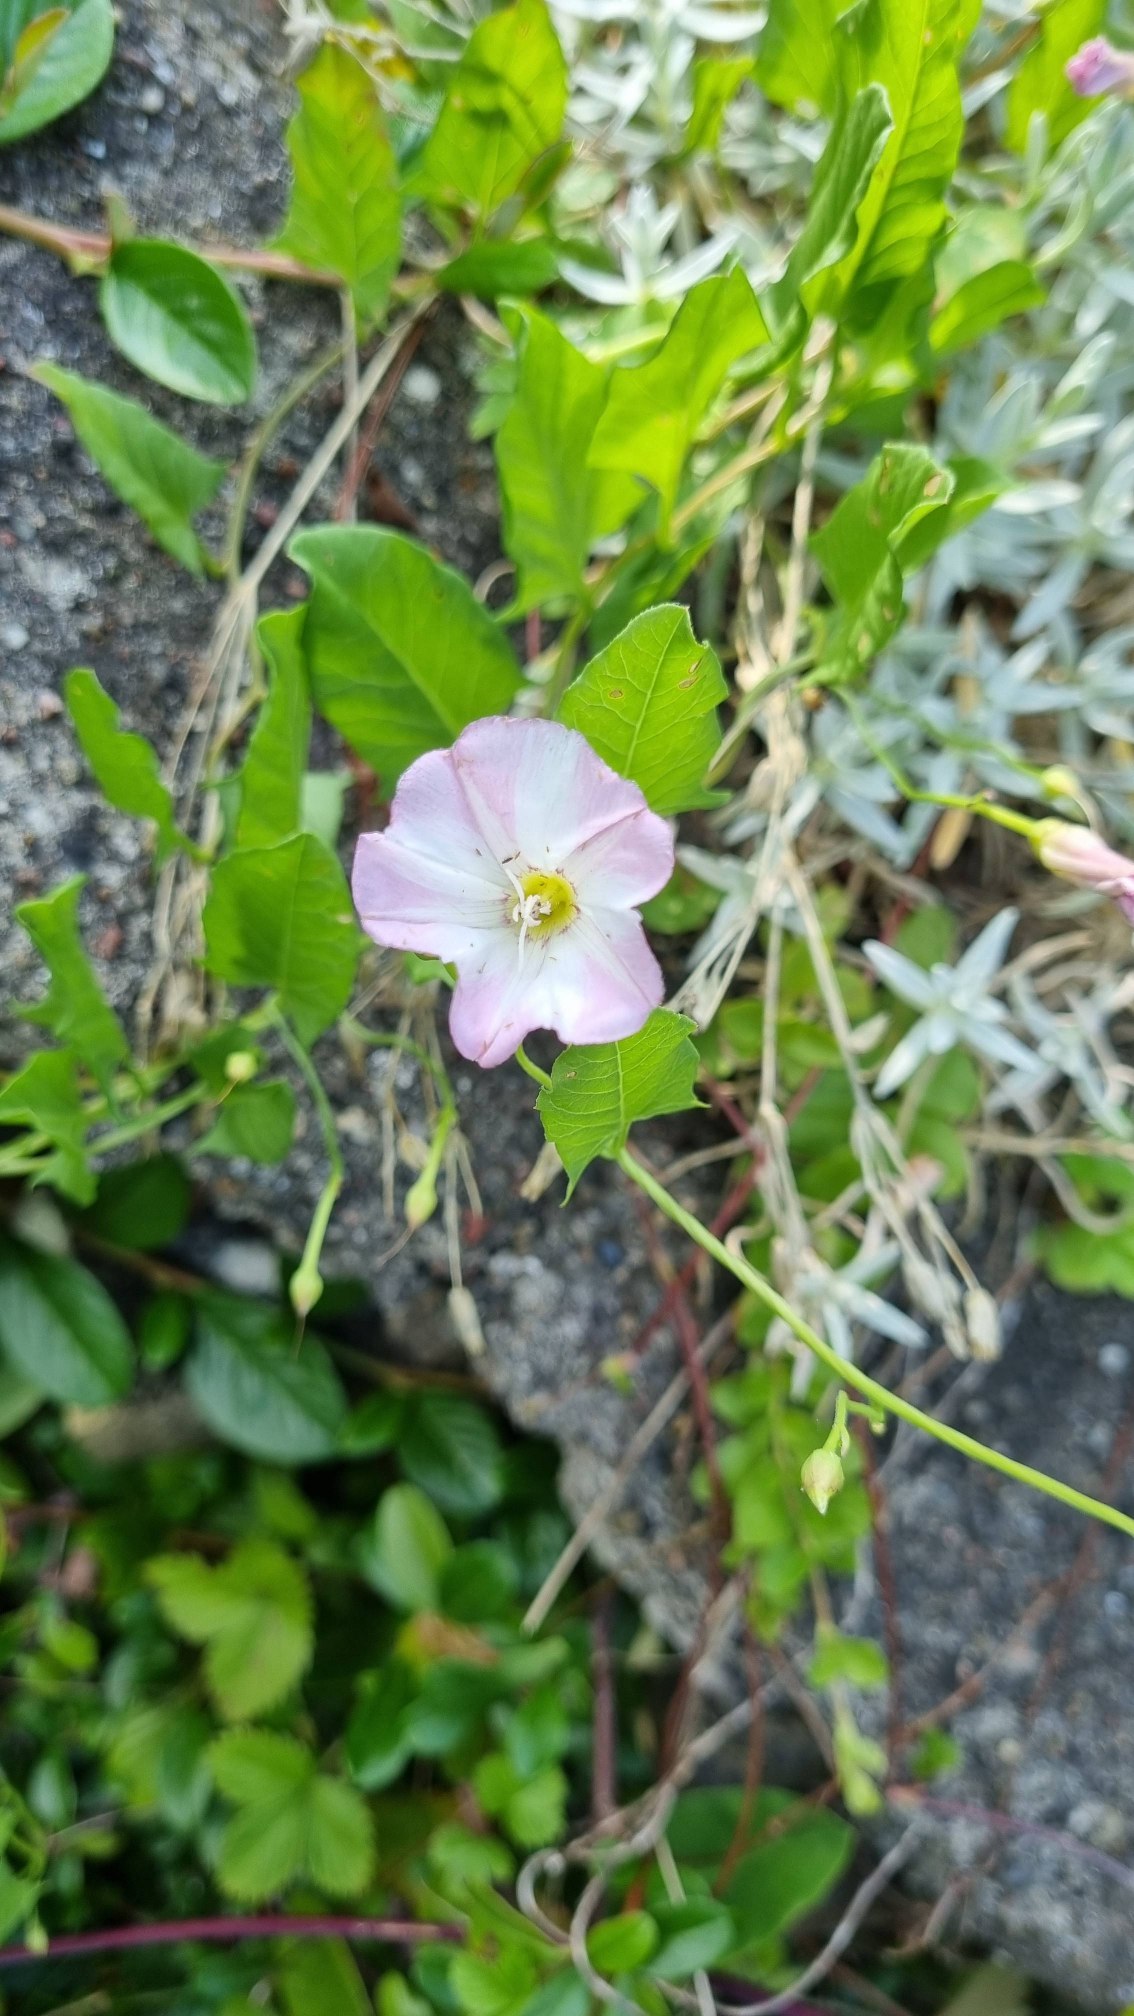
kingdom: Plantae
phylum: Tracheophyta
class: Magnoliopsida
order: Solanales
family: Convolvulaceae
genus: Convolvulus
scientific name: Convolvulus arvensis
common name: Ager-snerle
